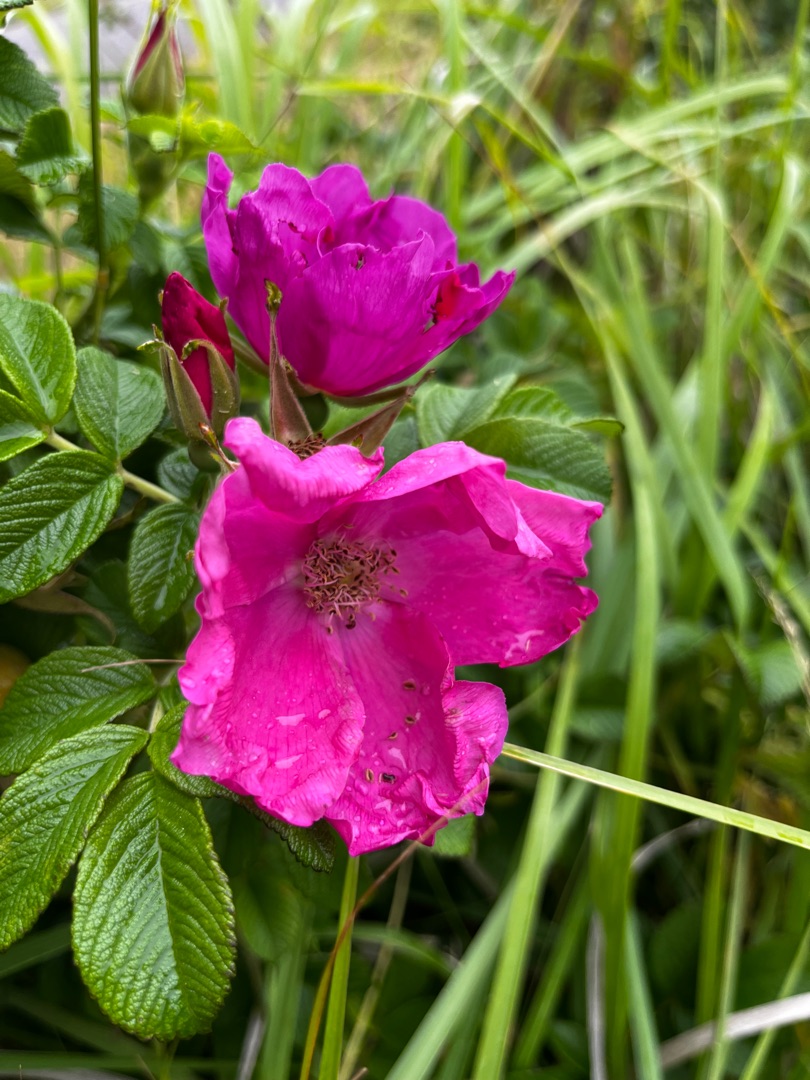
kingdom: Plantae
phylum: Tracheophyta
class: Magnoliopsida
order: Rosales
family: Rosaceae
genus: Rosa
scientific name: Rosa rugosa
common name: Rynket rose
